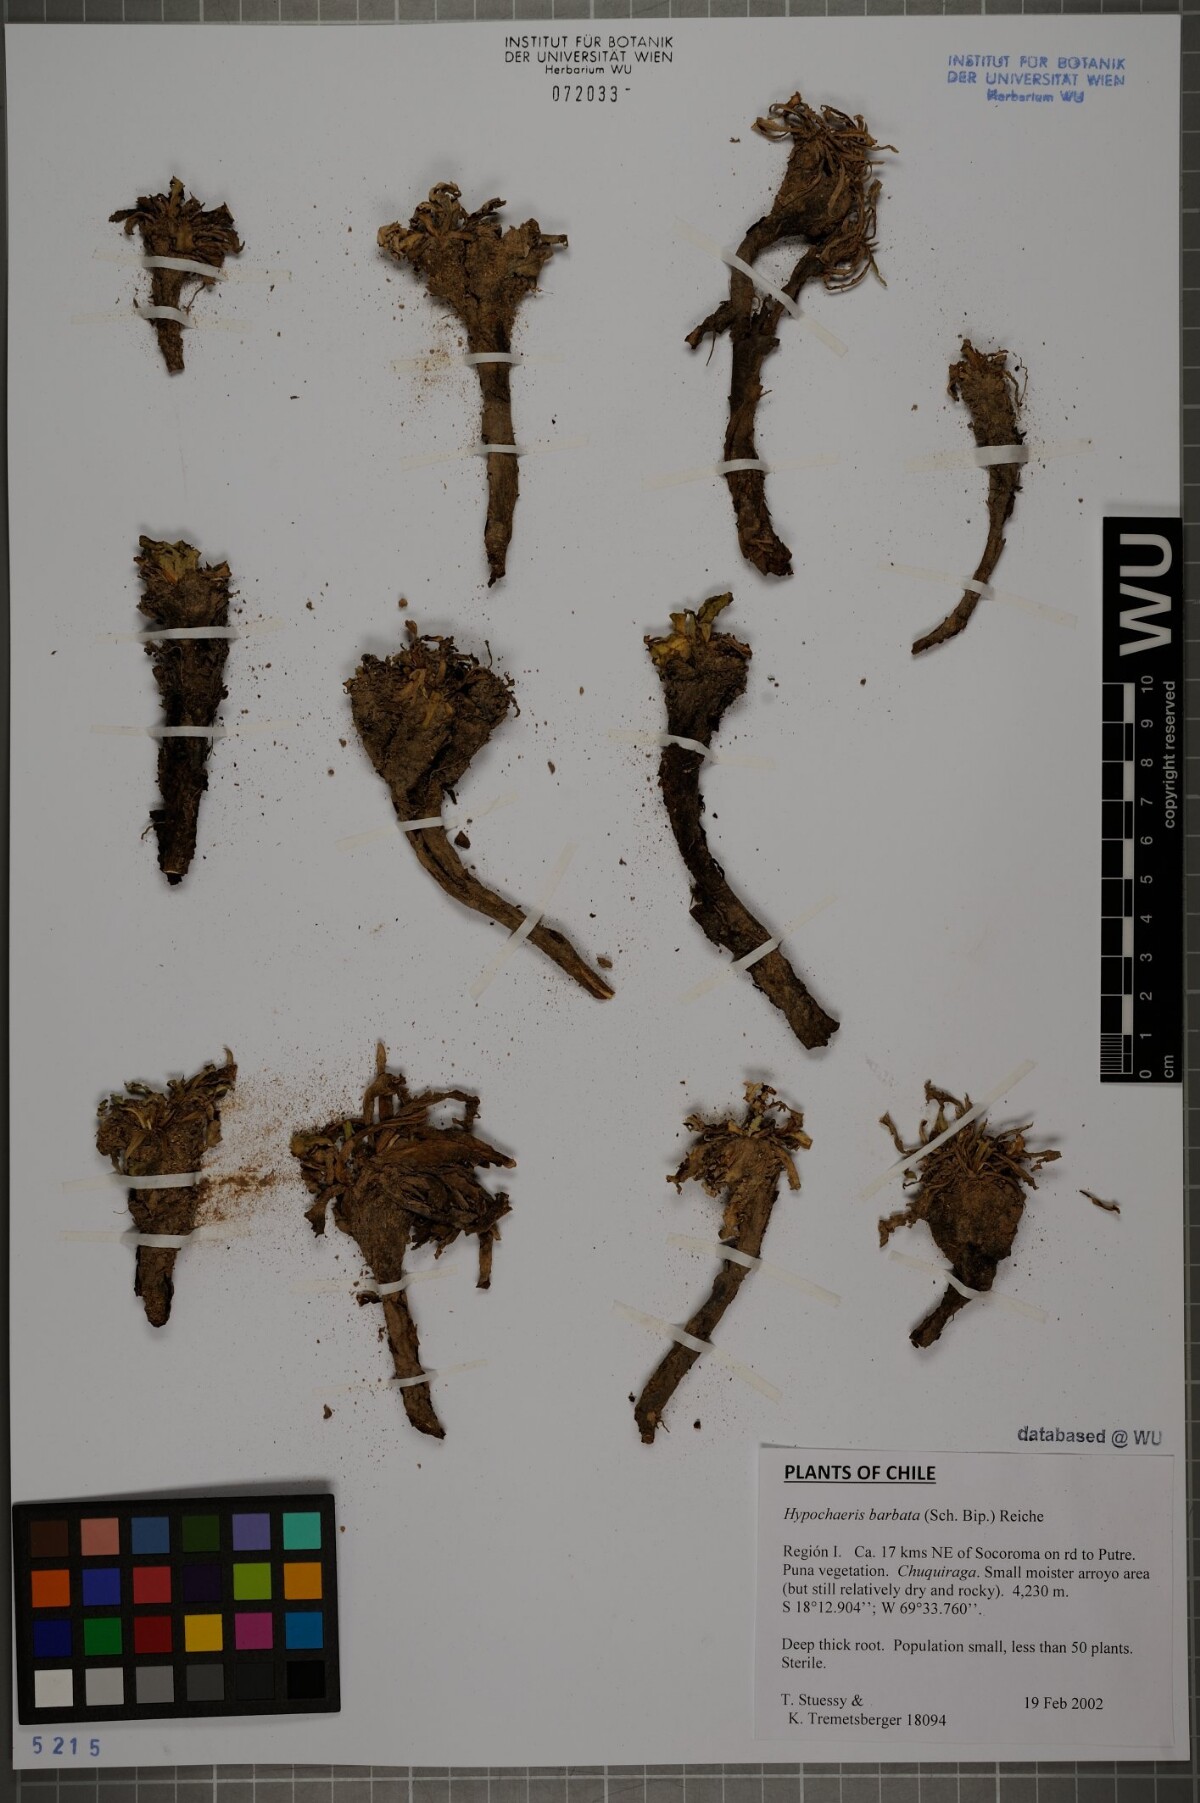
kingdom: Plantae
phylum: Tracheophyta
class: Magnoliopsida
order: Asterales
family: Asteraceae
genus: Hypochaeris
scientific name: Hypochaeris sessiliflora
